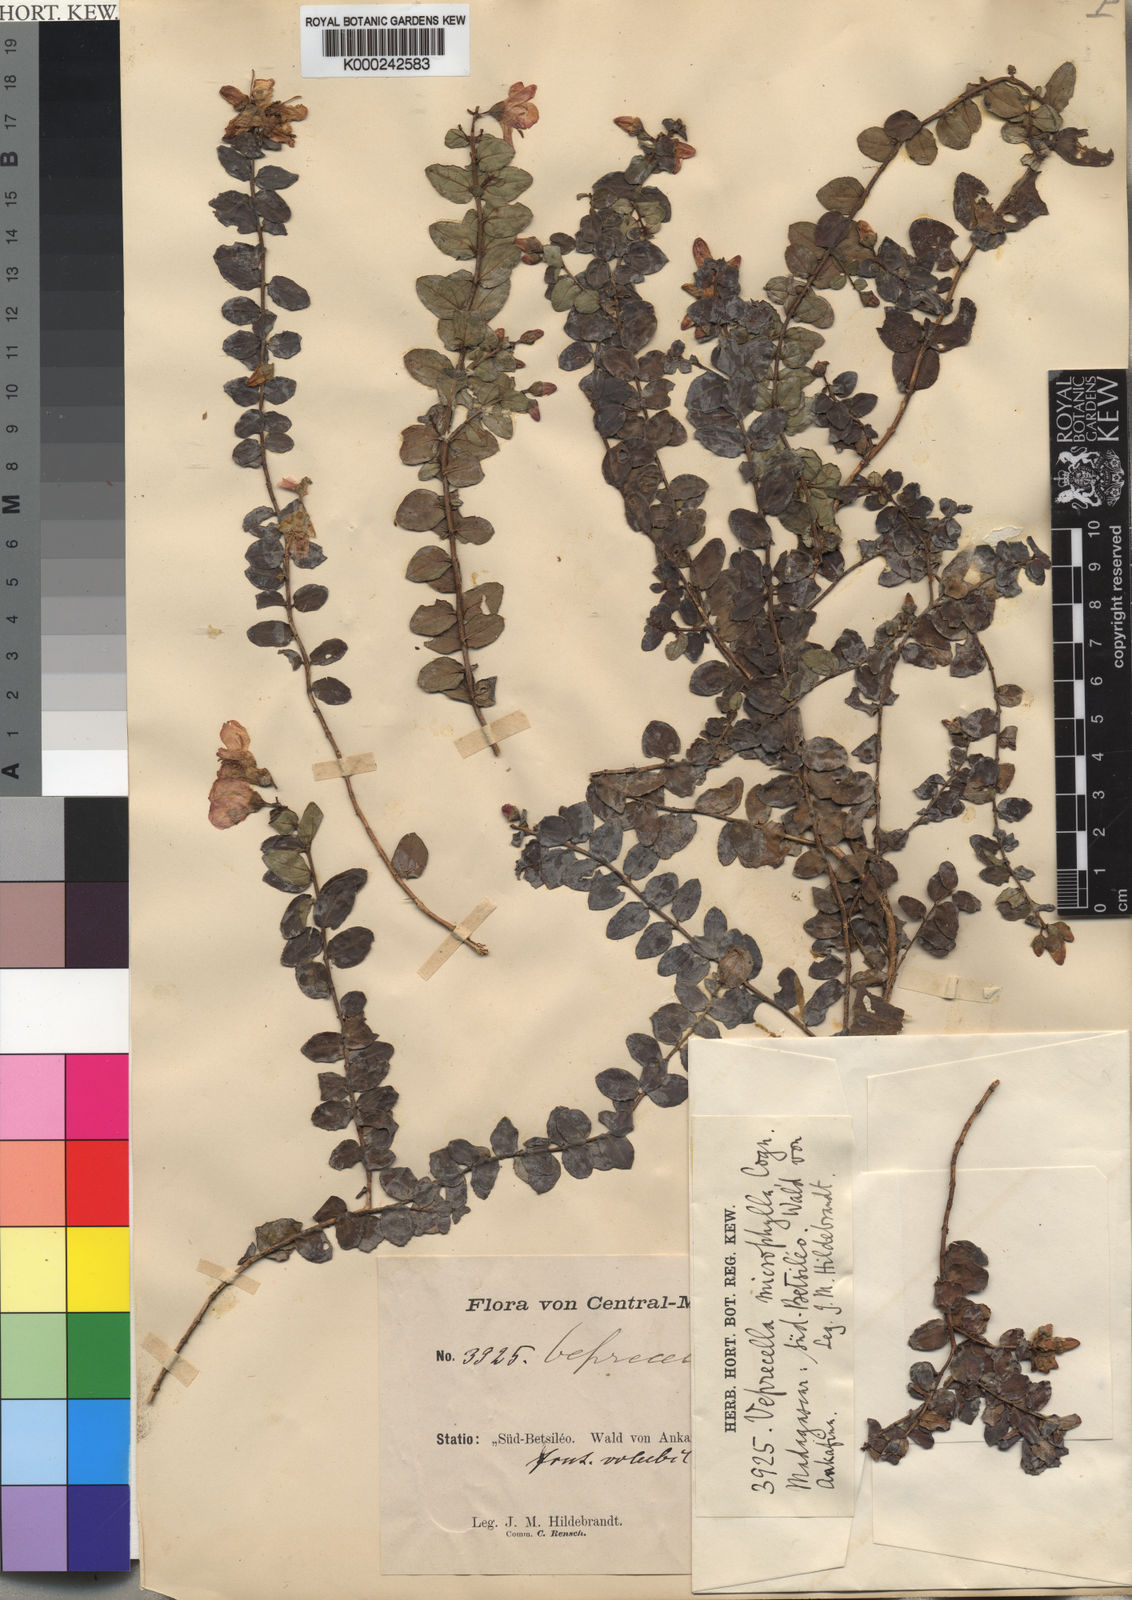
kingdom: Plantae
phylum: Tracheophyta
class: Magnoliopsida
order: Myrtales
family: Melastomataceae
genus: Gravesia
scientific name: Gravesia microphylla
